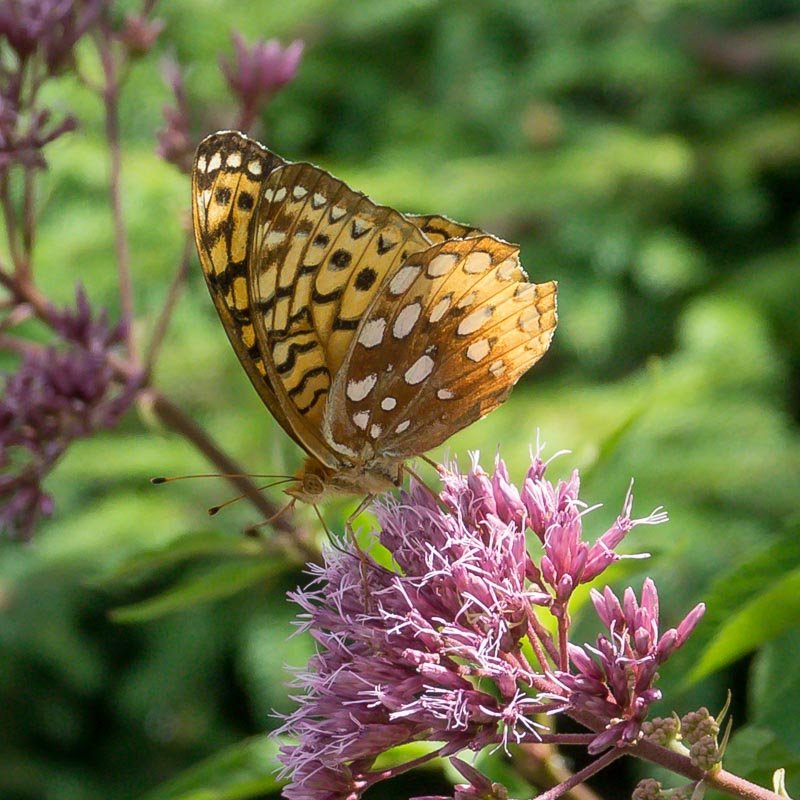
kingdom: Animalia
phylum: Arthropoda
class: Insecta
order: Lepidoptera
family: Nymphalidae
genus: Speyeria
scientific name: Speyeria cybele
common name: Great Spangled Fritillary
